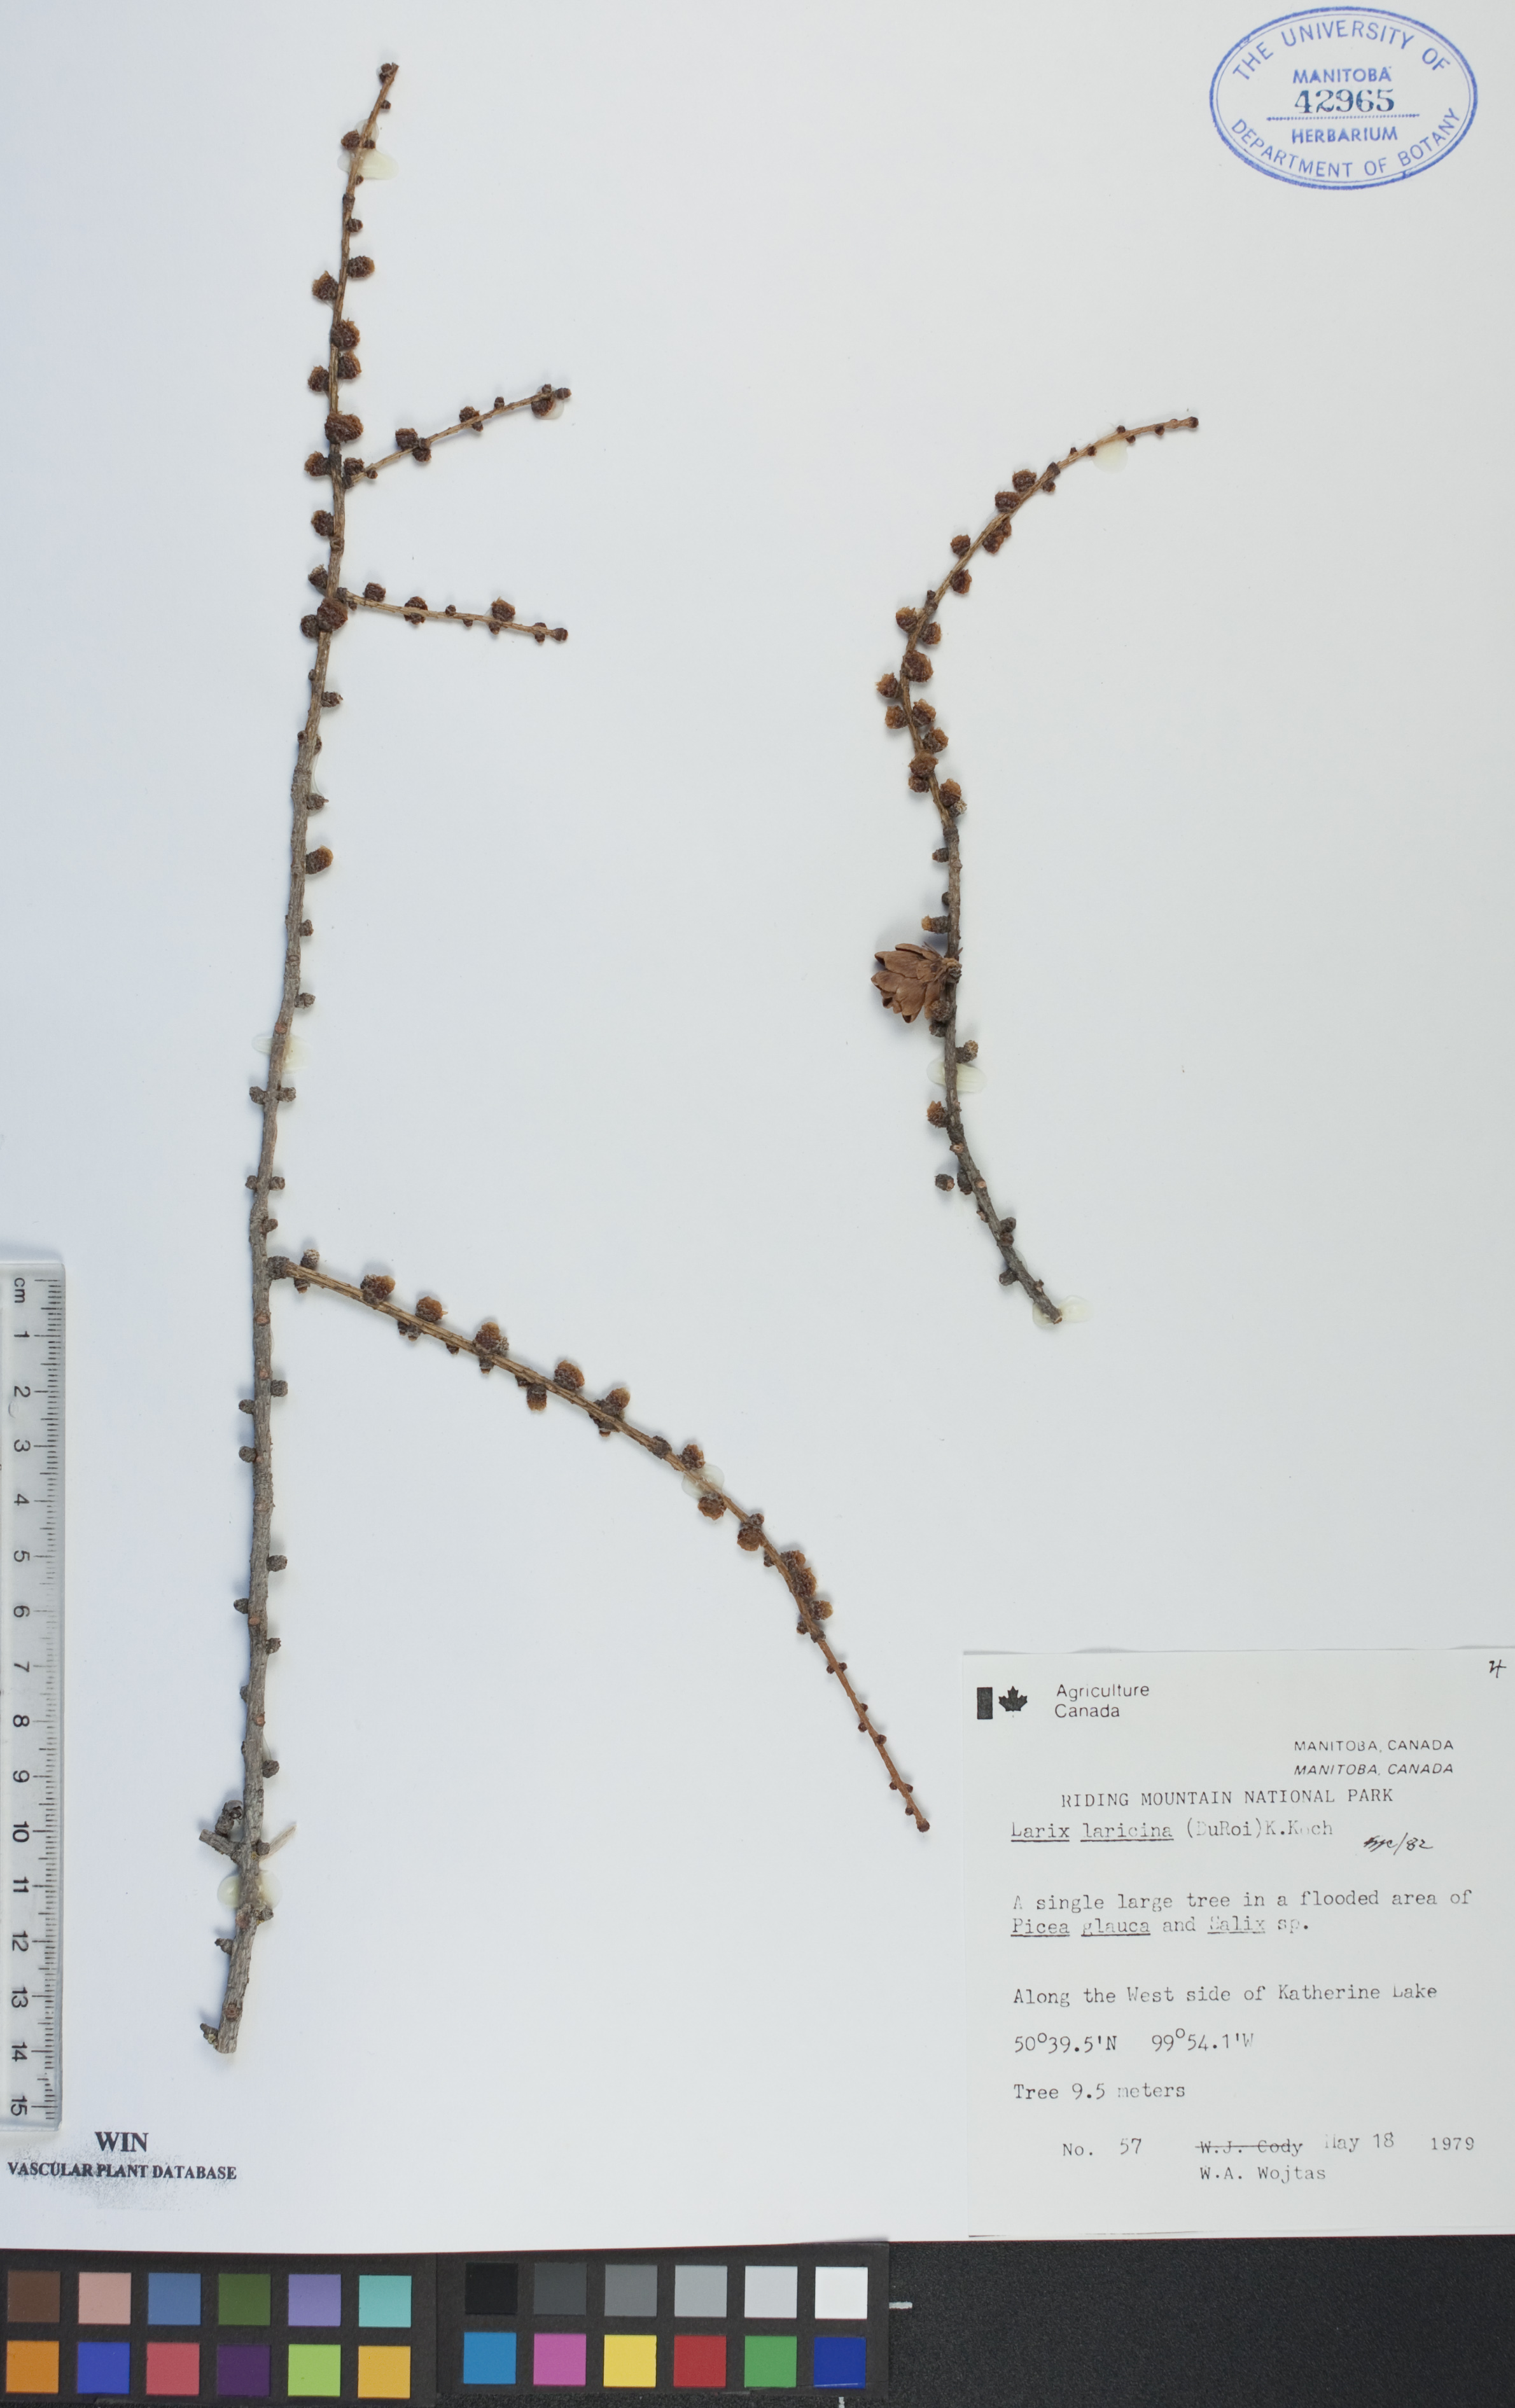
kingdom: Plantae
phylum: Tracheophyta
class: Pinopsida
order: Pinales
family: Pinaceae
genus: Larix
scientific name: Larix laricina
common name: American larch
